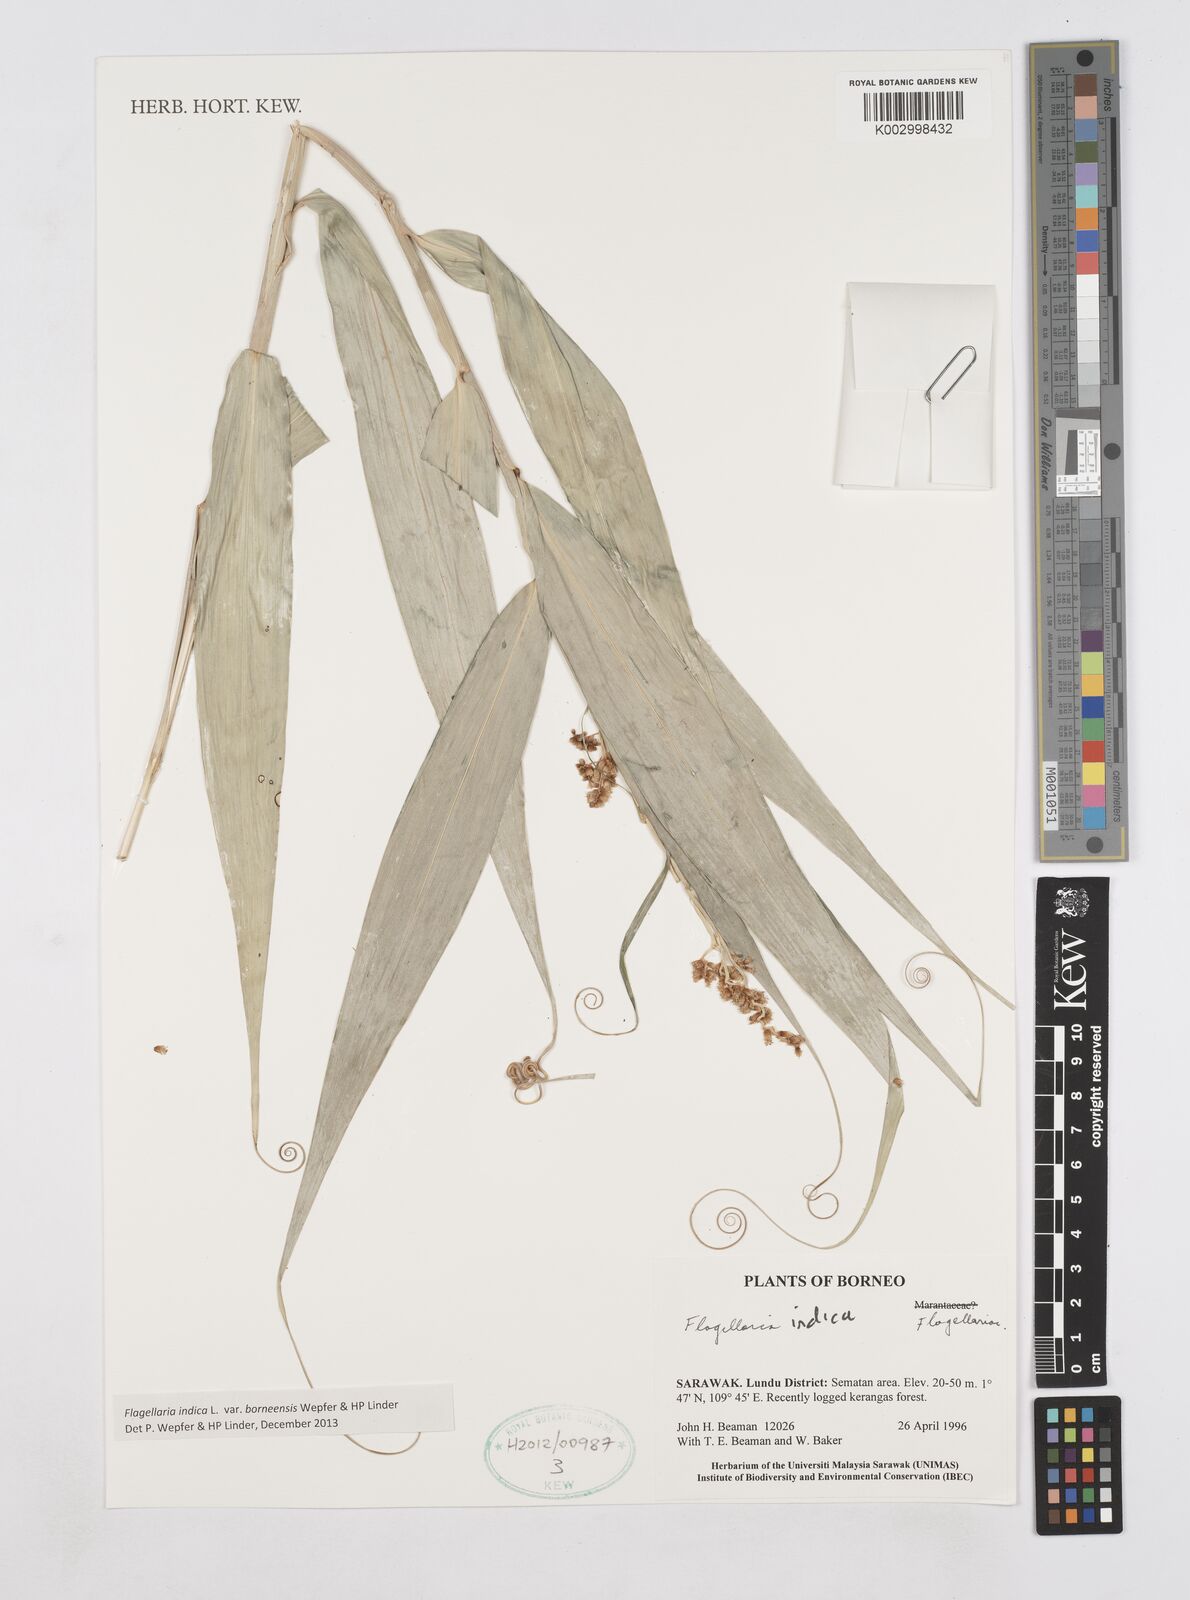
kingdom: Plantae
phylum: Tracheophyta
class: Liliopsida
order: Poales
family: Flagellariaceae
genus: Flagellaria
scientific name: Flagellaria indica
